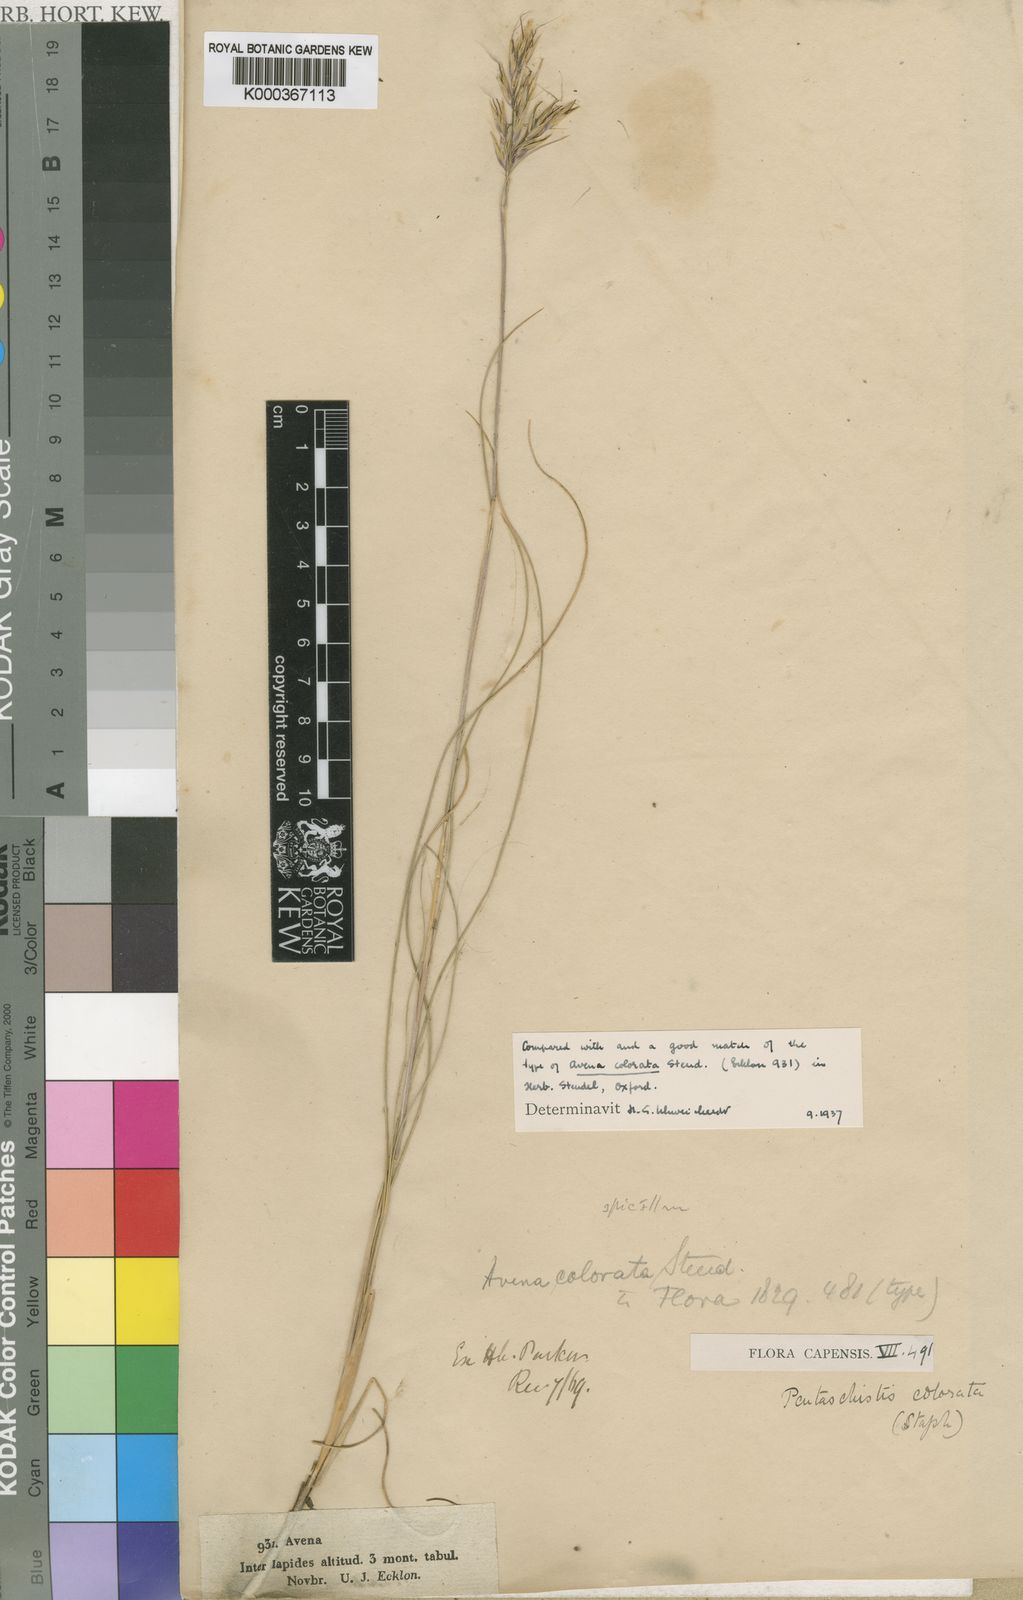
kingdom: Plantae
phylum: Tracheophyta
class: Liliopsida
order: Poales
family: Poaceae
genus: Pentameris
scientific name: Pentameris colorata
